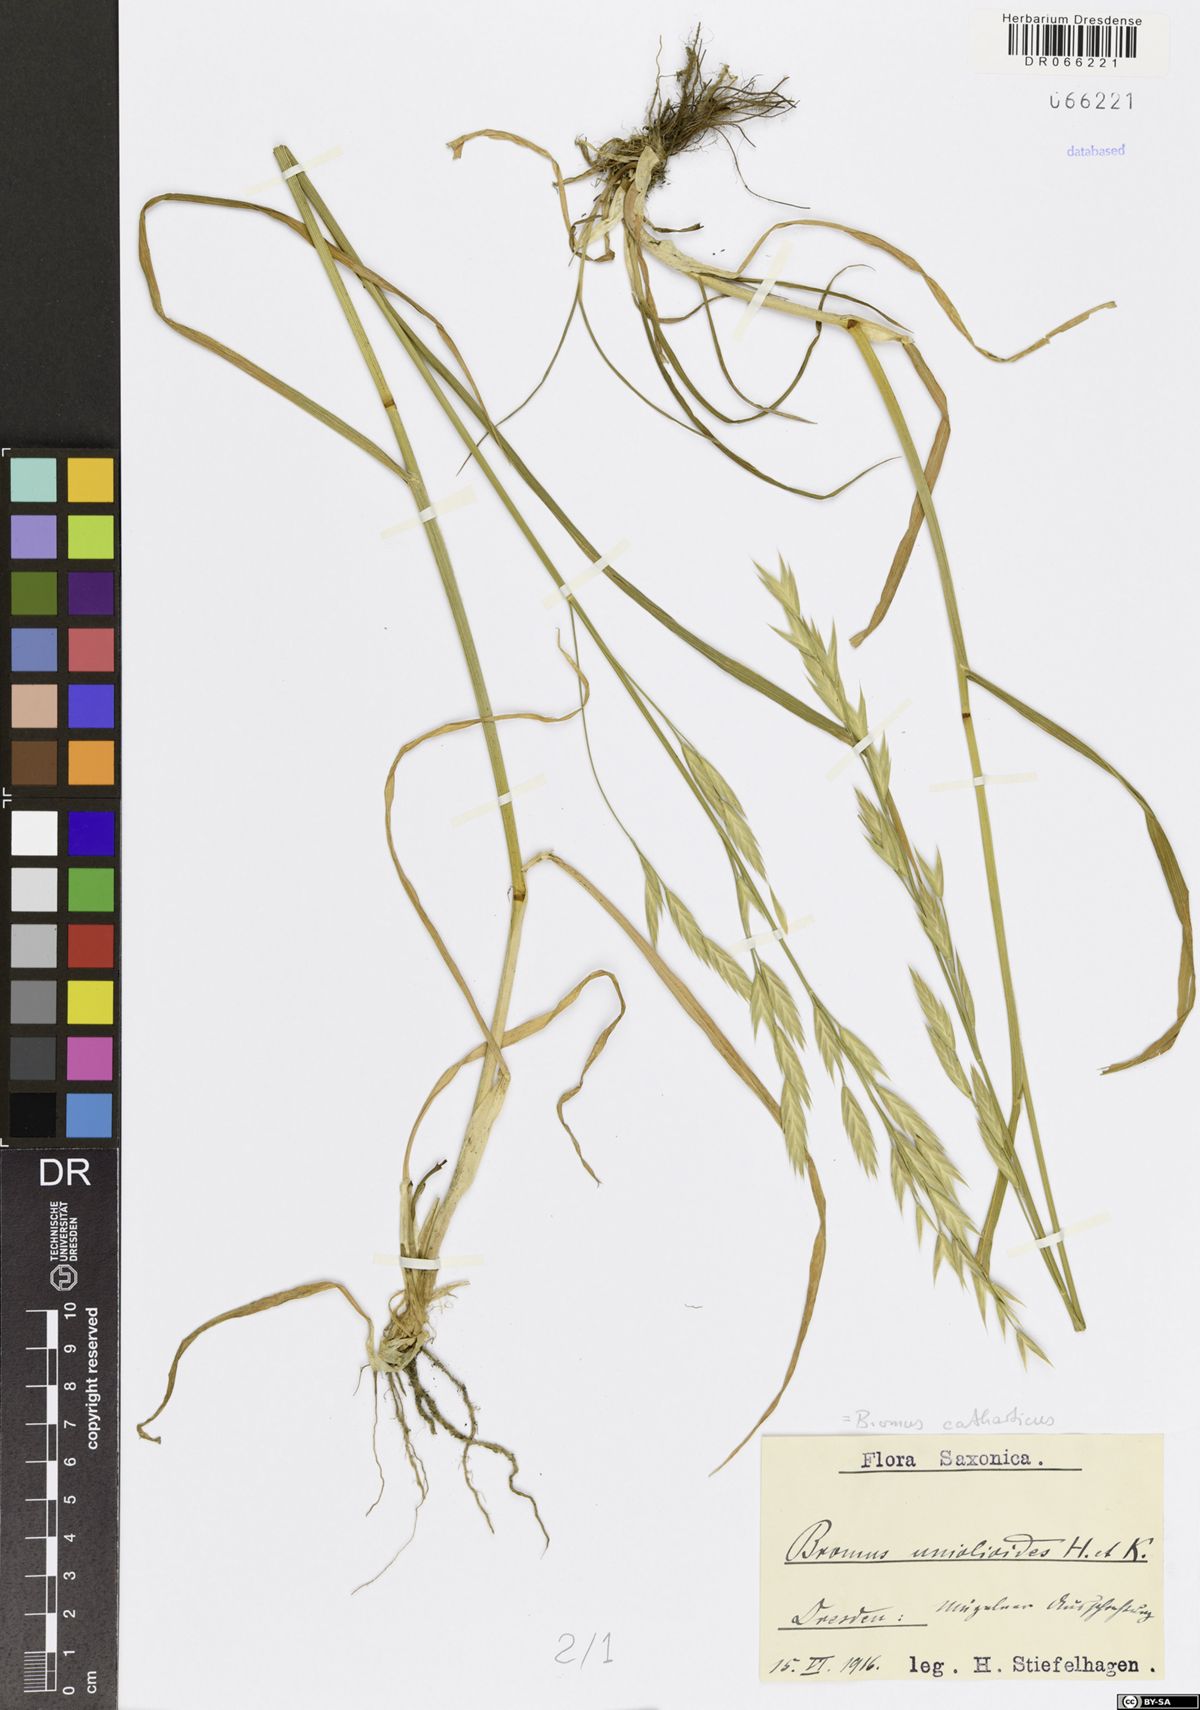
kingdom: Plantae
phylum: Tracheophyta
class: Liliopsida
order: Poales
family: Poaceae
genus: Bromus
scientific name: Bromus catharticus
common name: Rescuegrass
